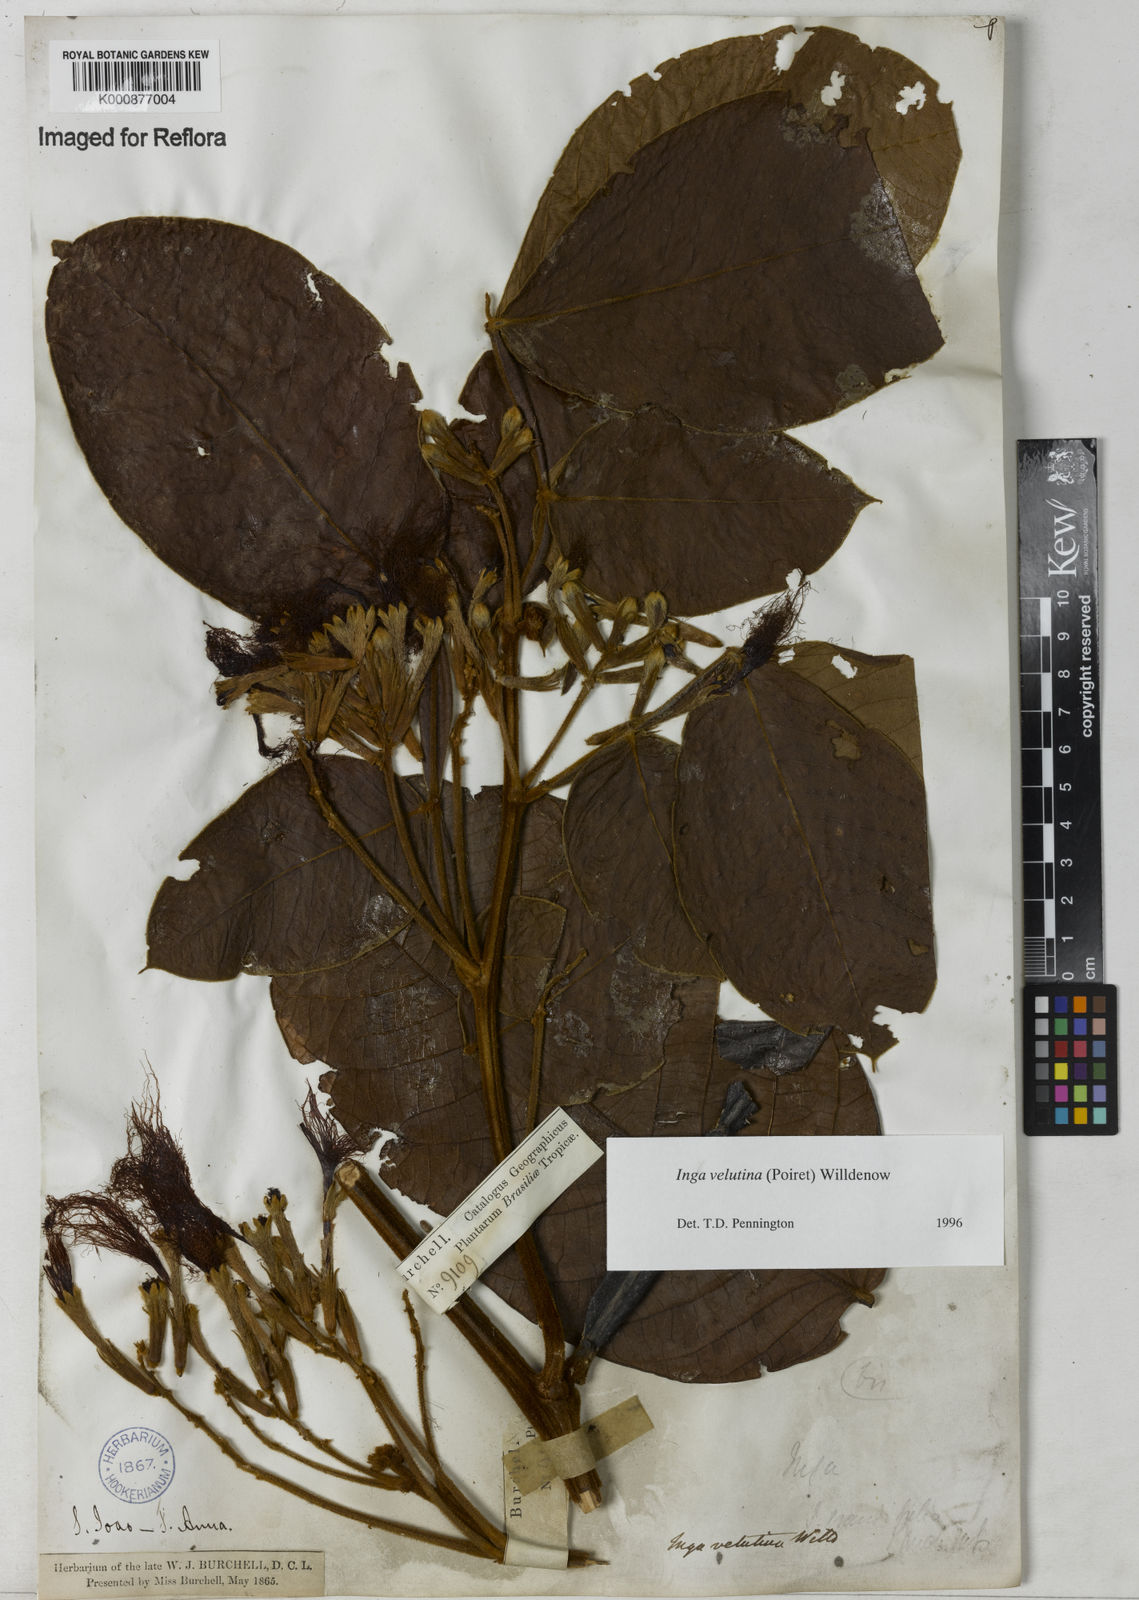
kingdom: Plantae
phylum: Tracheophyta
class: Magnoliopsida
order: Fabales
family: Fabaceae
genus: Inga
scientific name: Inga velutina
